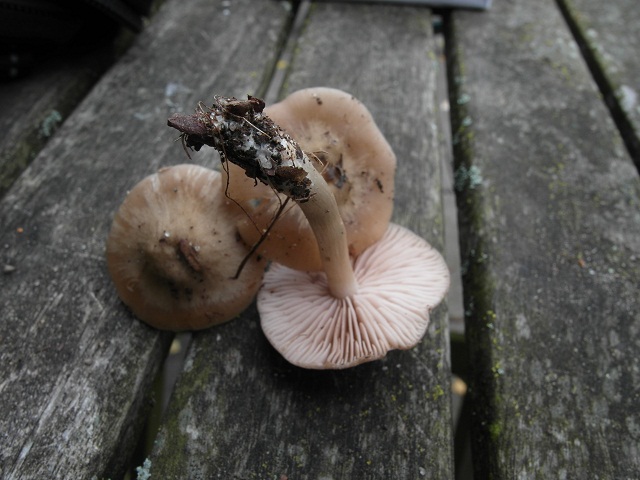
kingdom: Fungi
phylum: Basidiomycota
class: Agaricomycetes
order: Agaricales
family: Entolomataceae
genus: Entoloma
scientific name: Entoloma sordidulum
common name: smudsig rødblad
